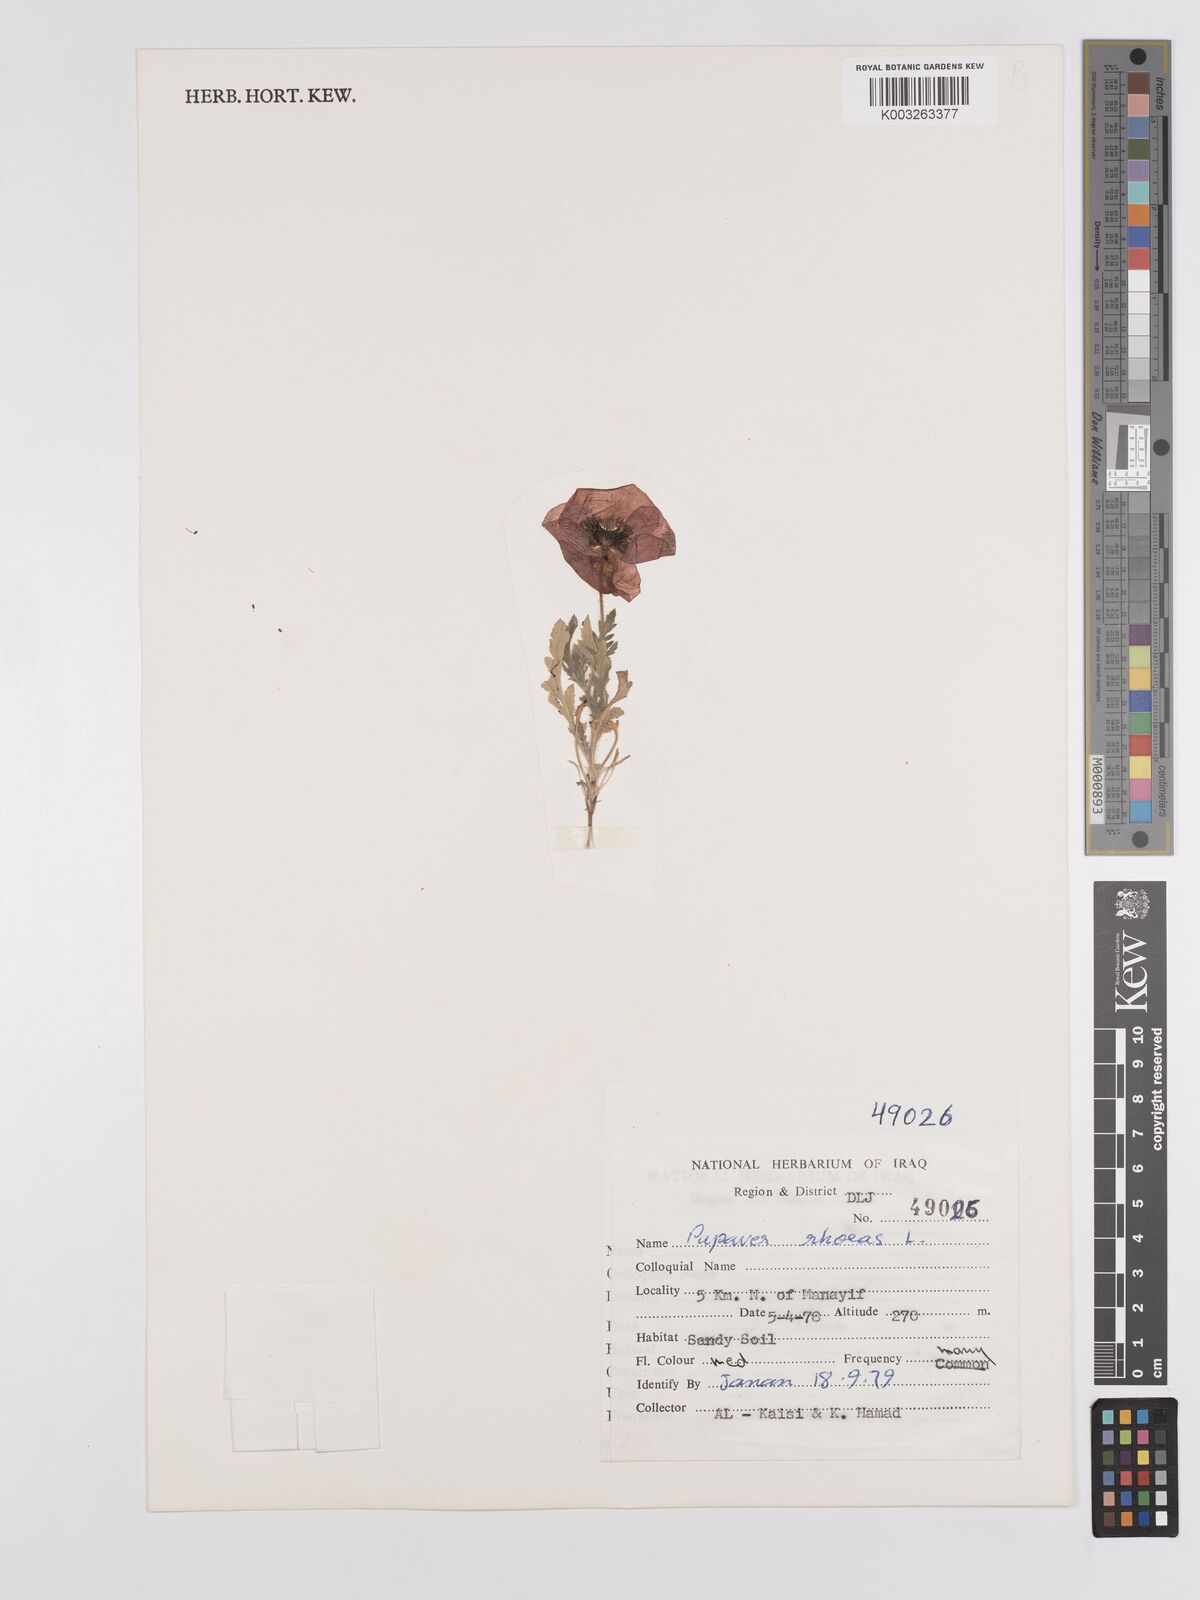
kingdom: Plantae
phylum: Tracheophyta
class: Magnoliopsida
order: Ranunculales
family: Papaveraceae
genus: Papaver
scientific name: Papaver rhoeas
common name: Corn poppy
